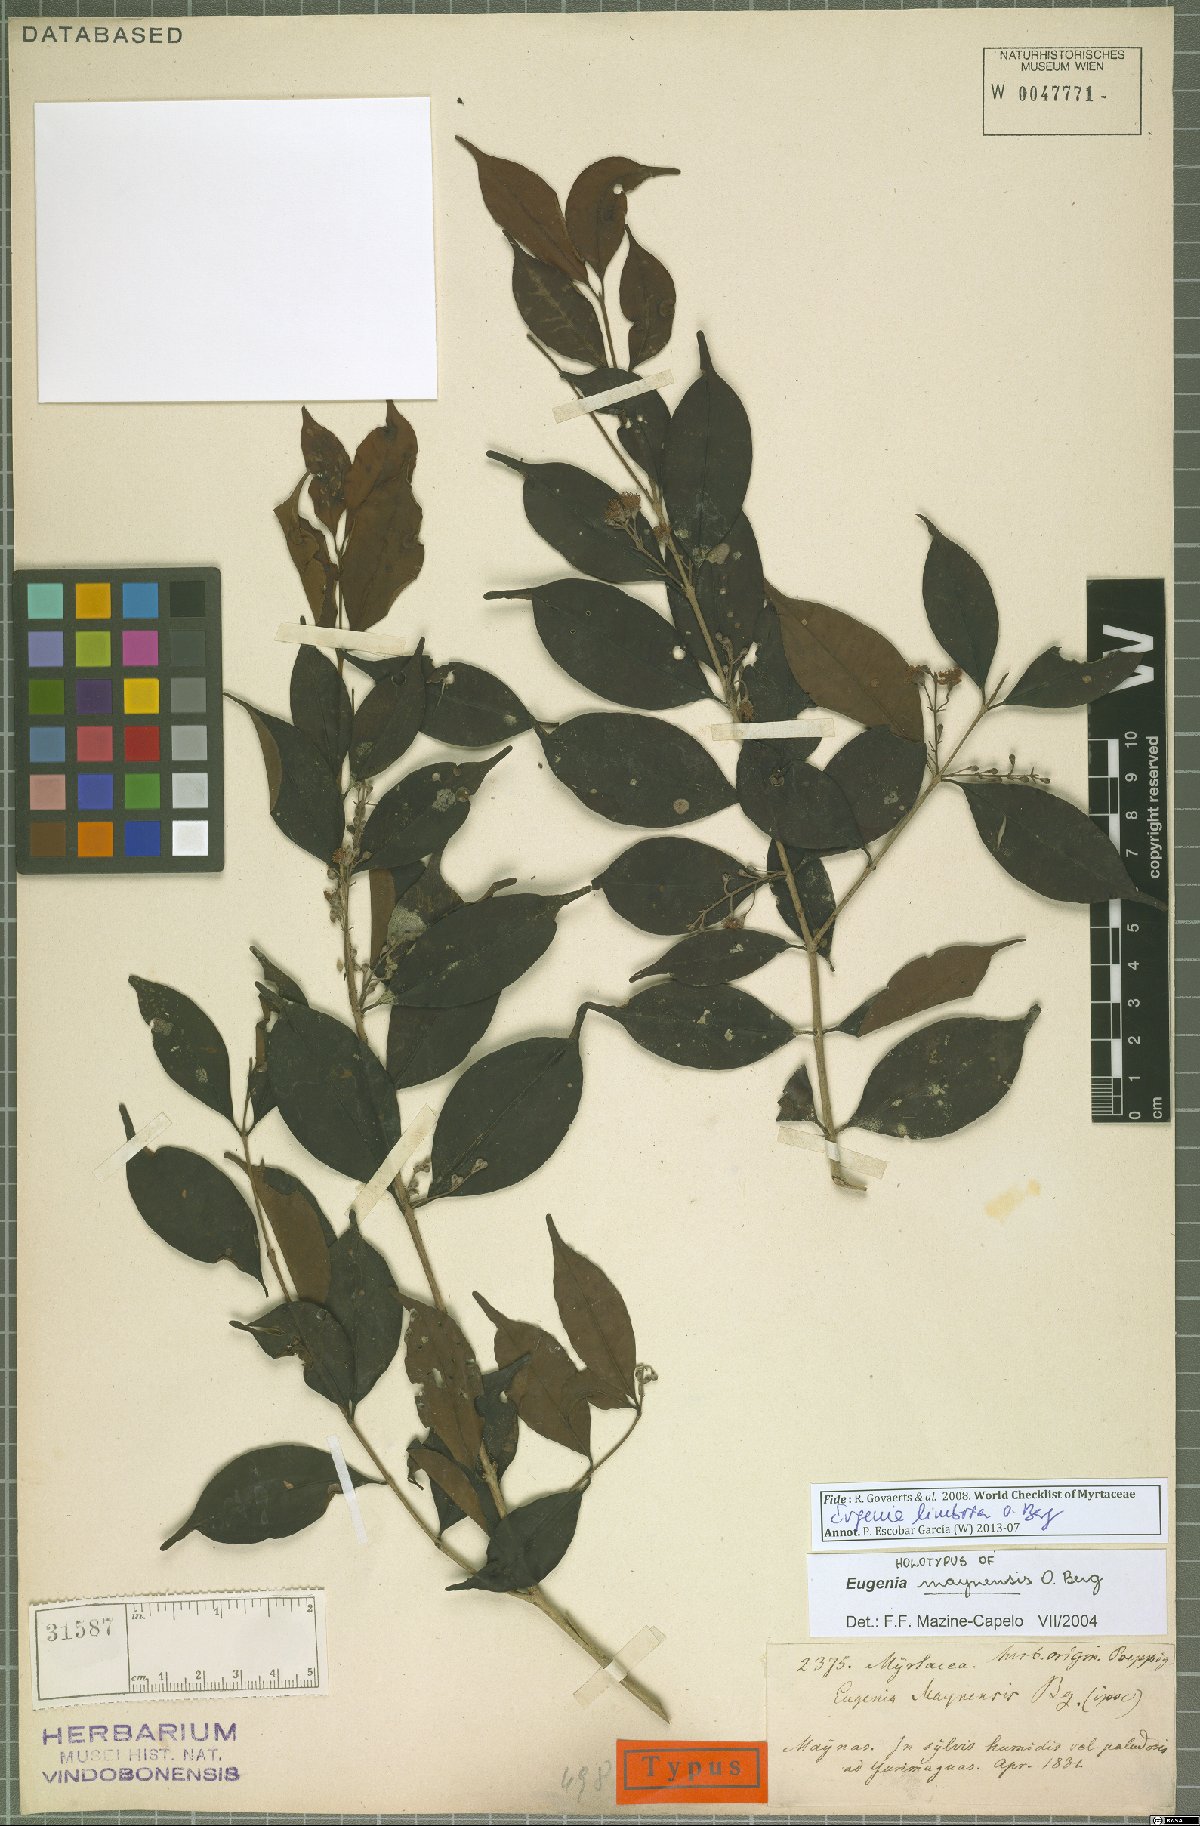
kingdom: Plantae
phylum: Tracheophyta
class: Magnoliopsida
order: Myrtales
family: Myrtaceae
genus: Eugenia
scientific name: Eugenia limbosa
